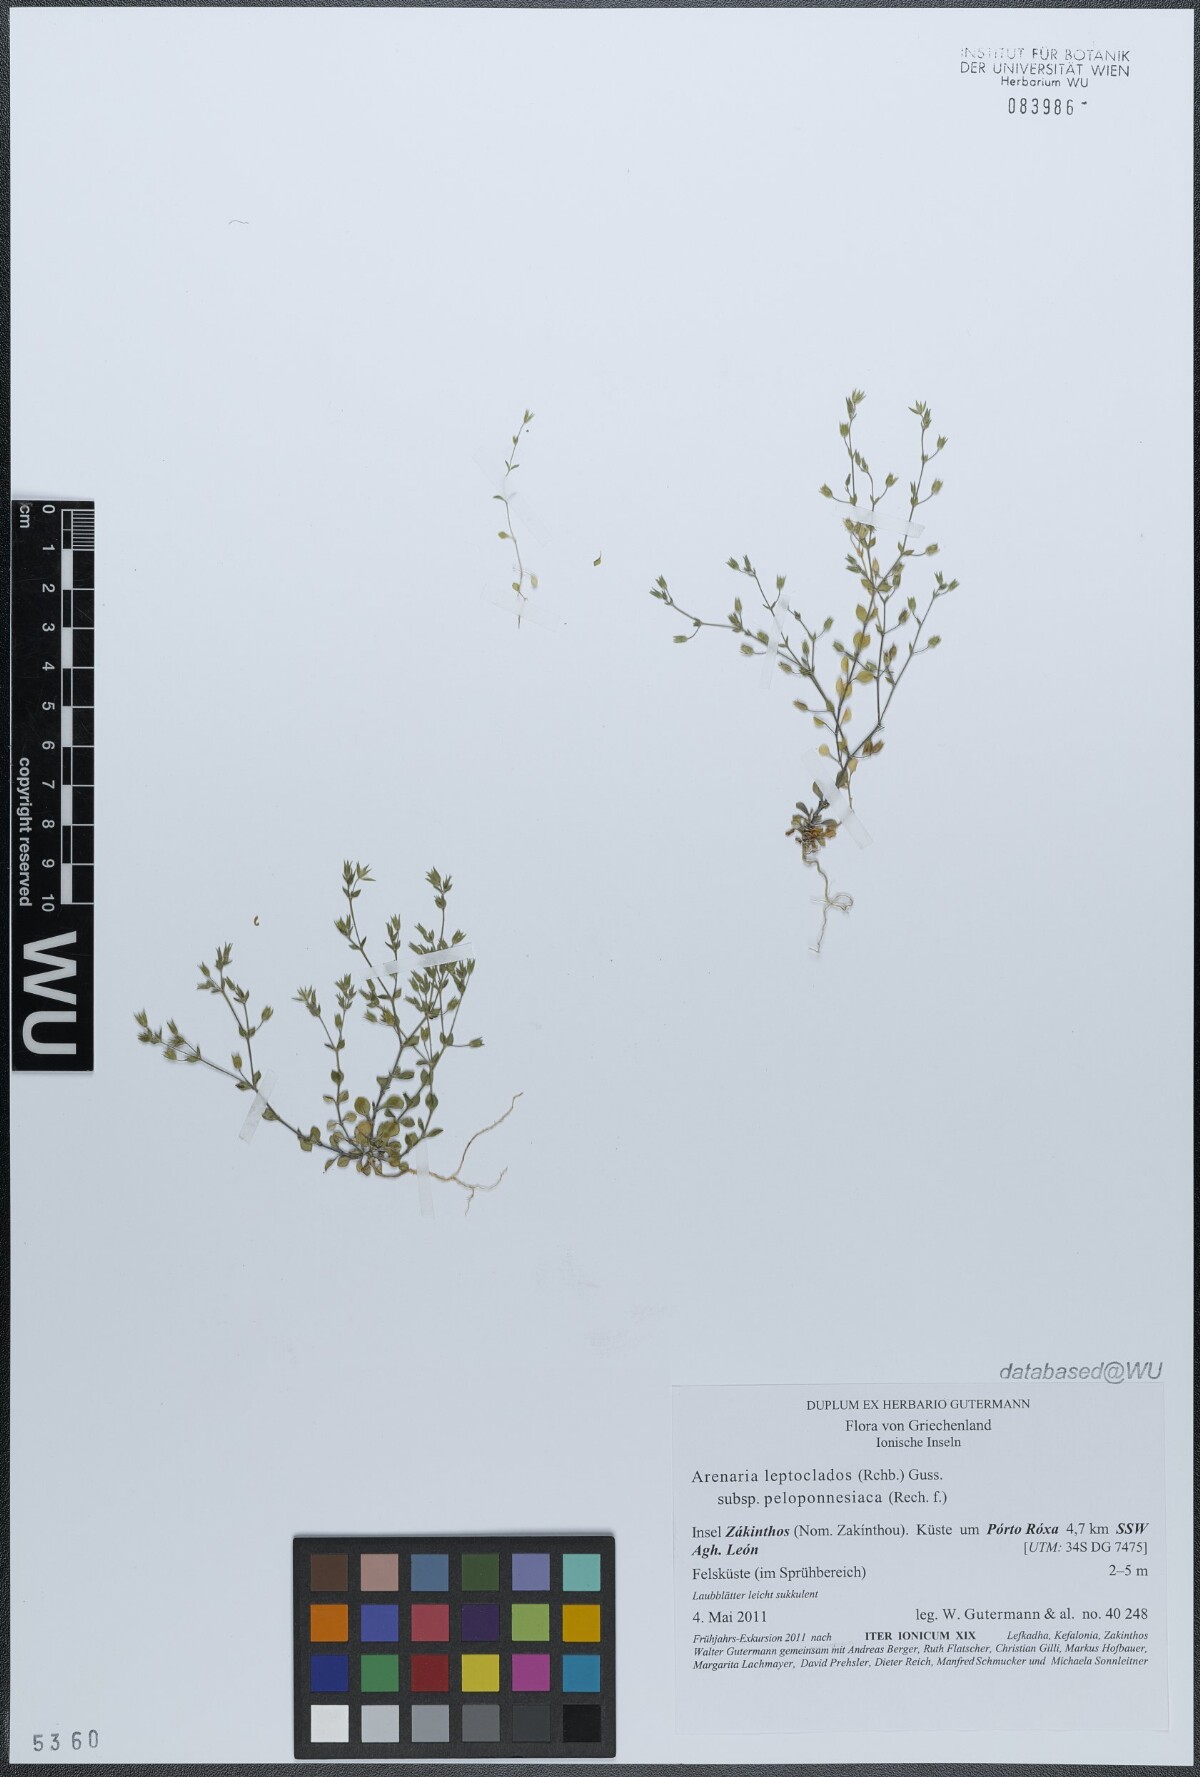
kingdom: Plantae
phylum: Tracheophyta
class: Magnoliopsida
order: Caryophyllales
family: Caryophyllaceae
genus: Arenaria
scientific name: Arenaria leptoclados
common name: Thyme-leaved sandwort
